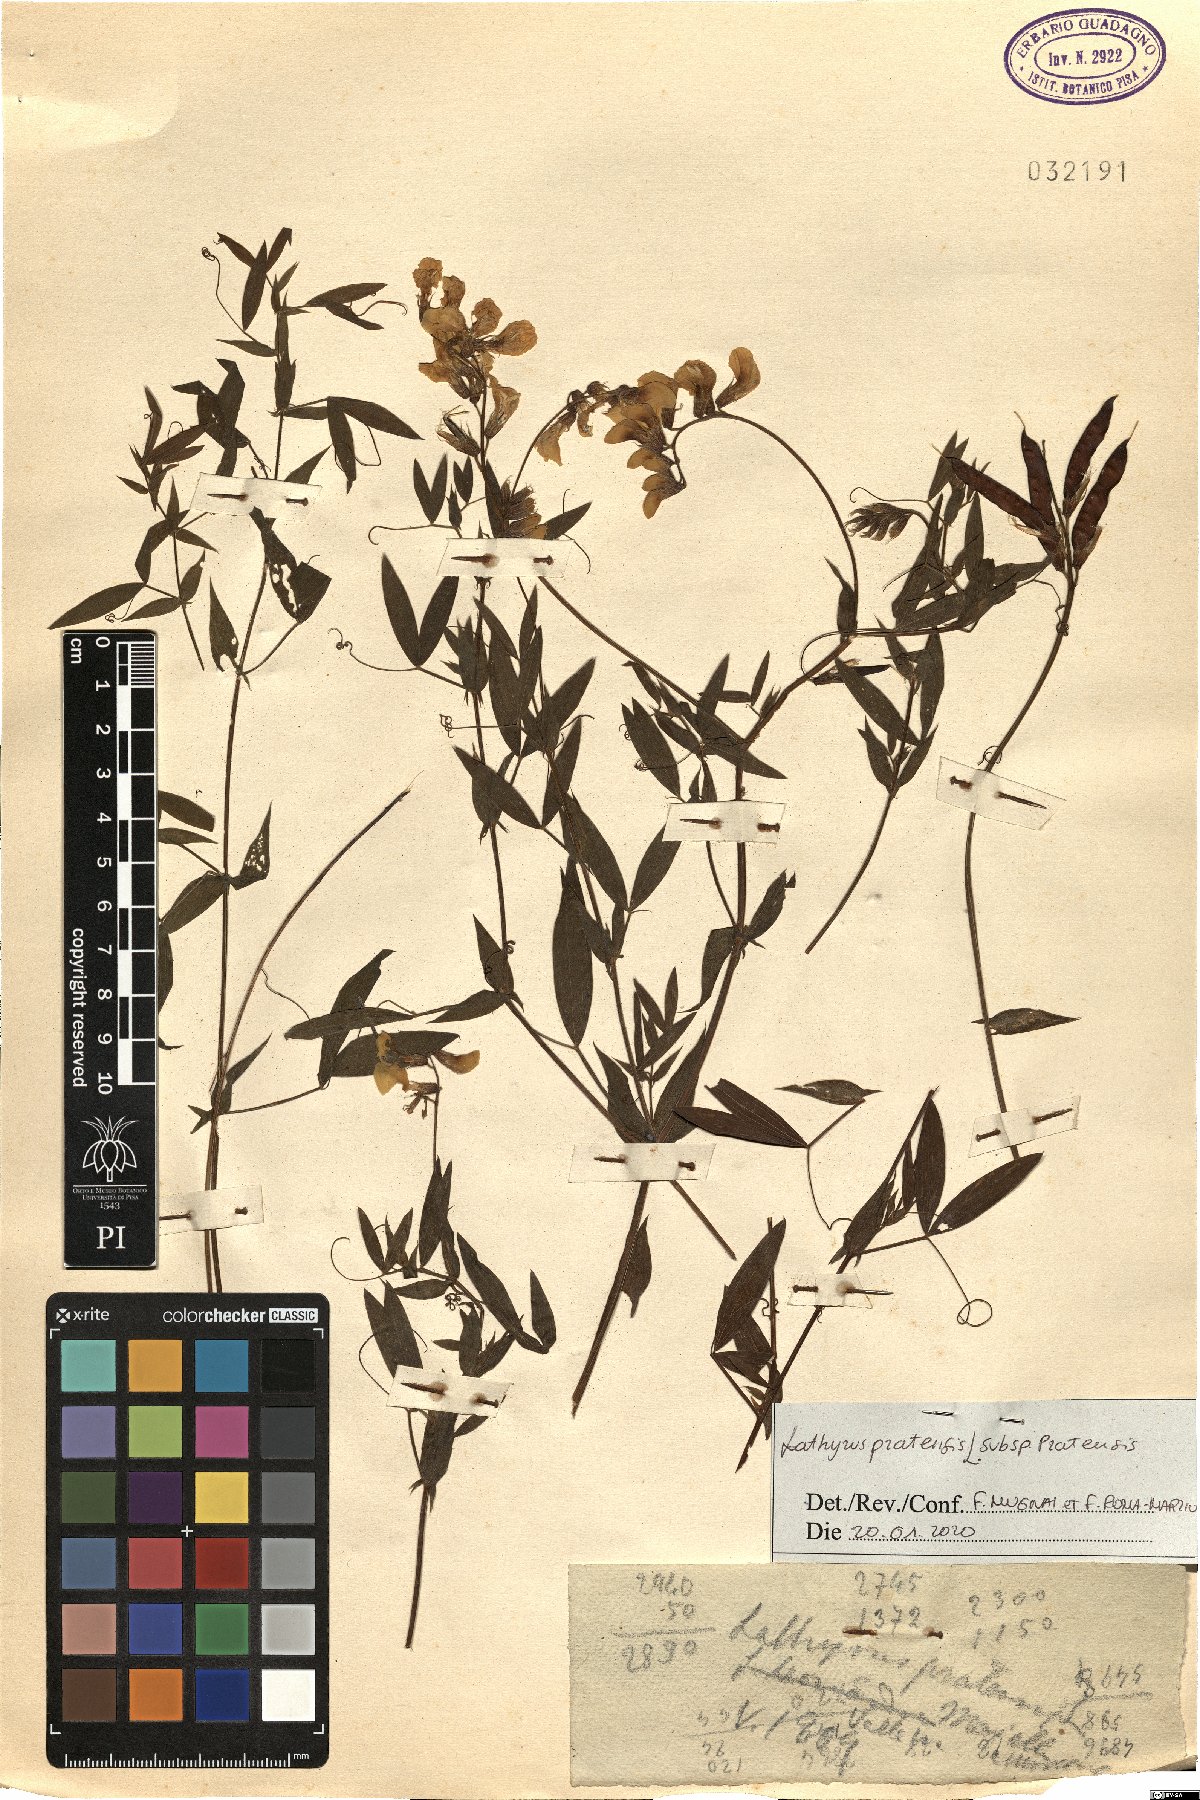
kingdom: Plantae
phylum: Tracheophyta
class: Magnoliopsida
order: Fabales
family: Fabaceae
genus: Lathyrus
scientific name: Lathyrus pratensis
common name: Meadow vetchling
